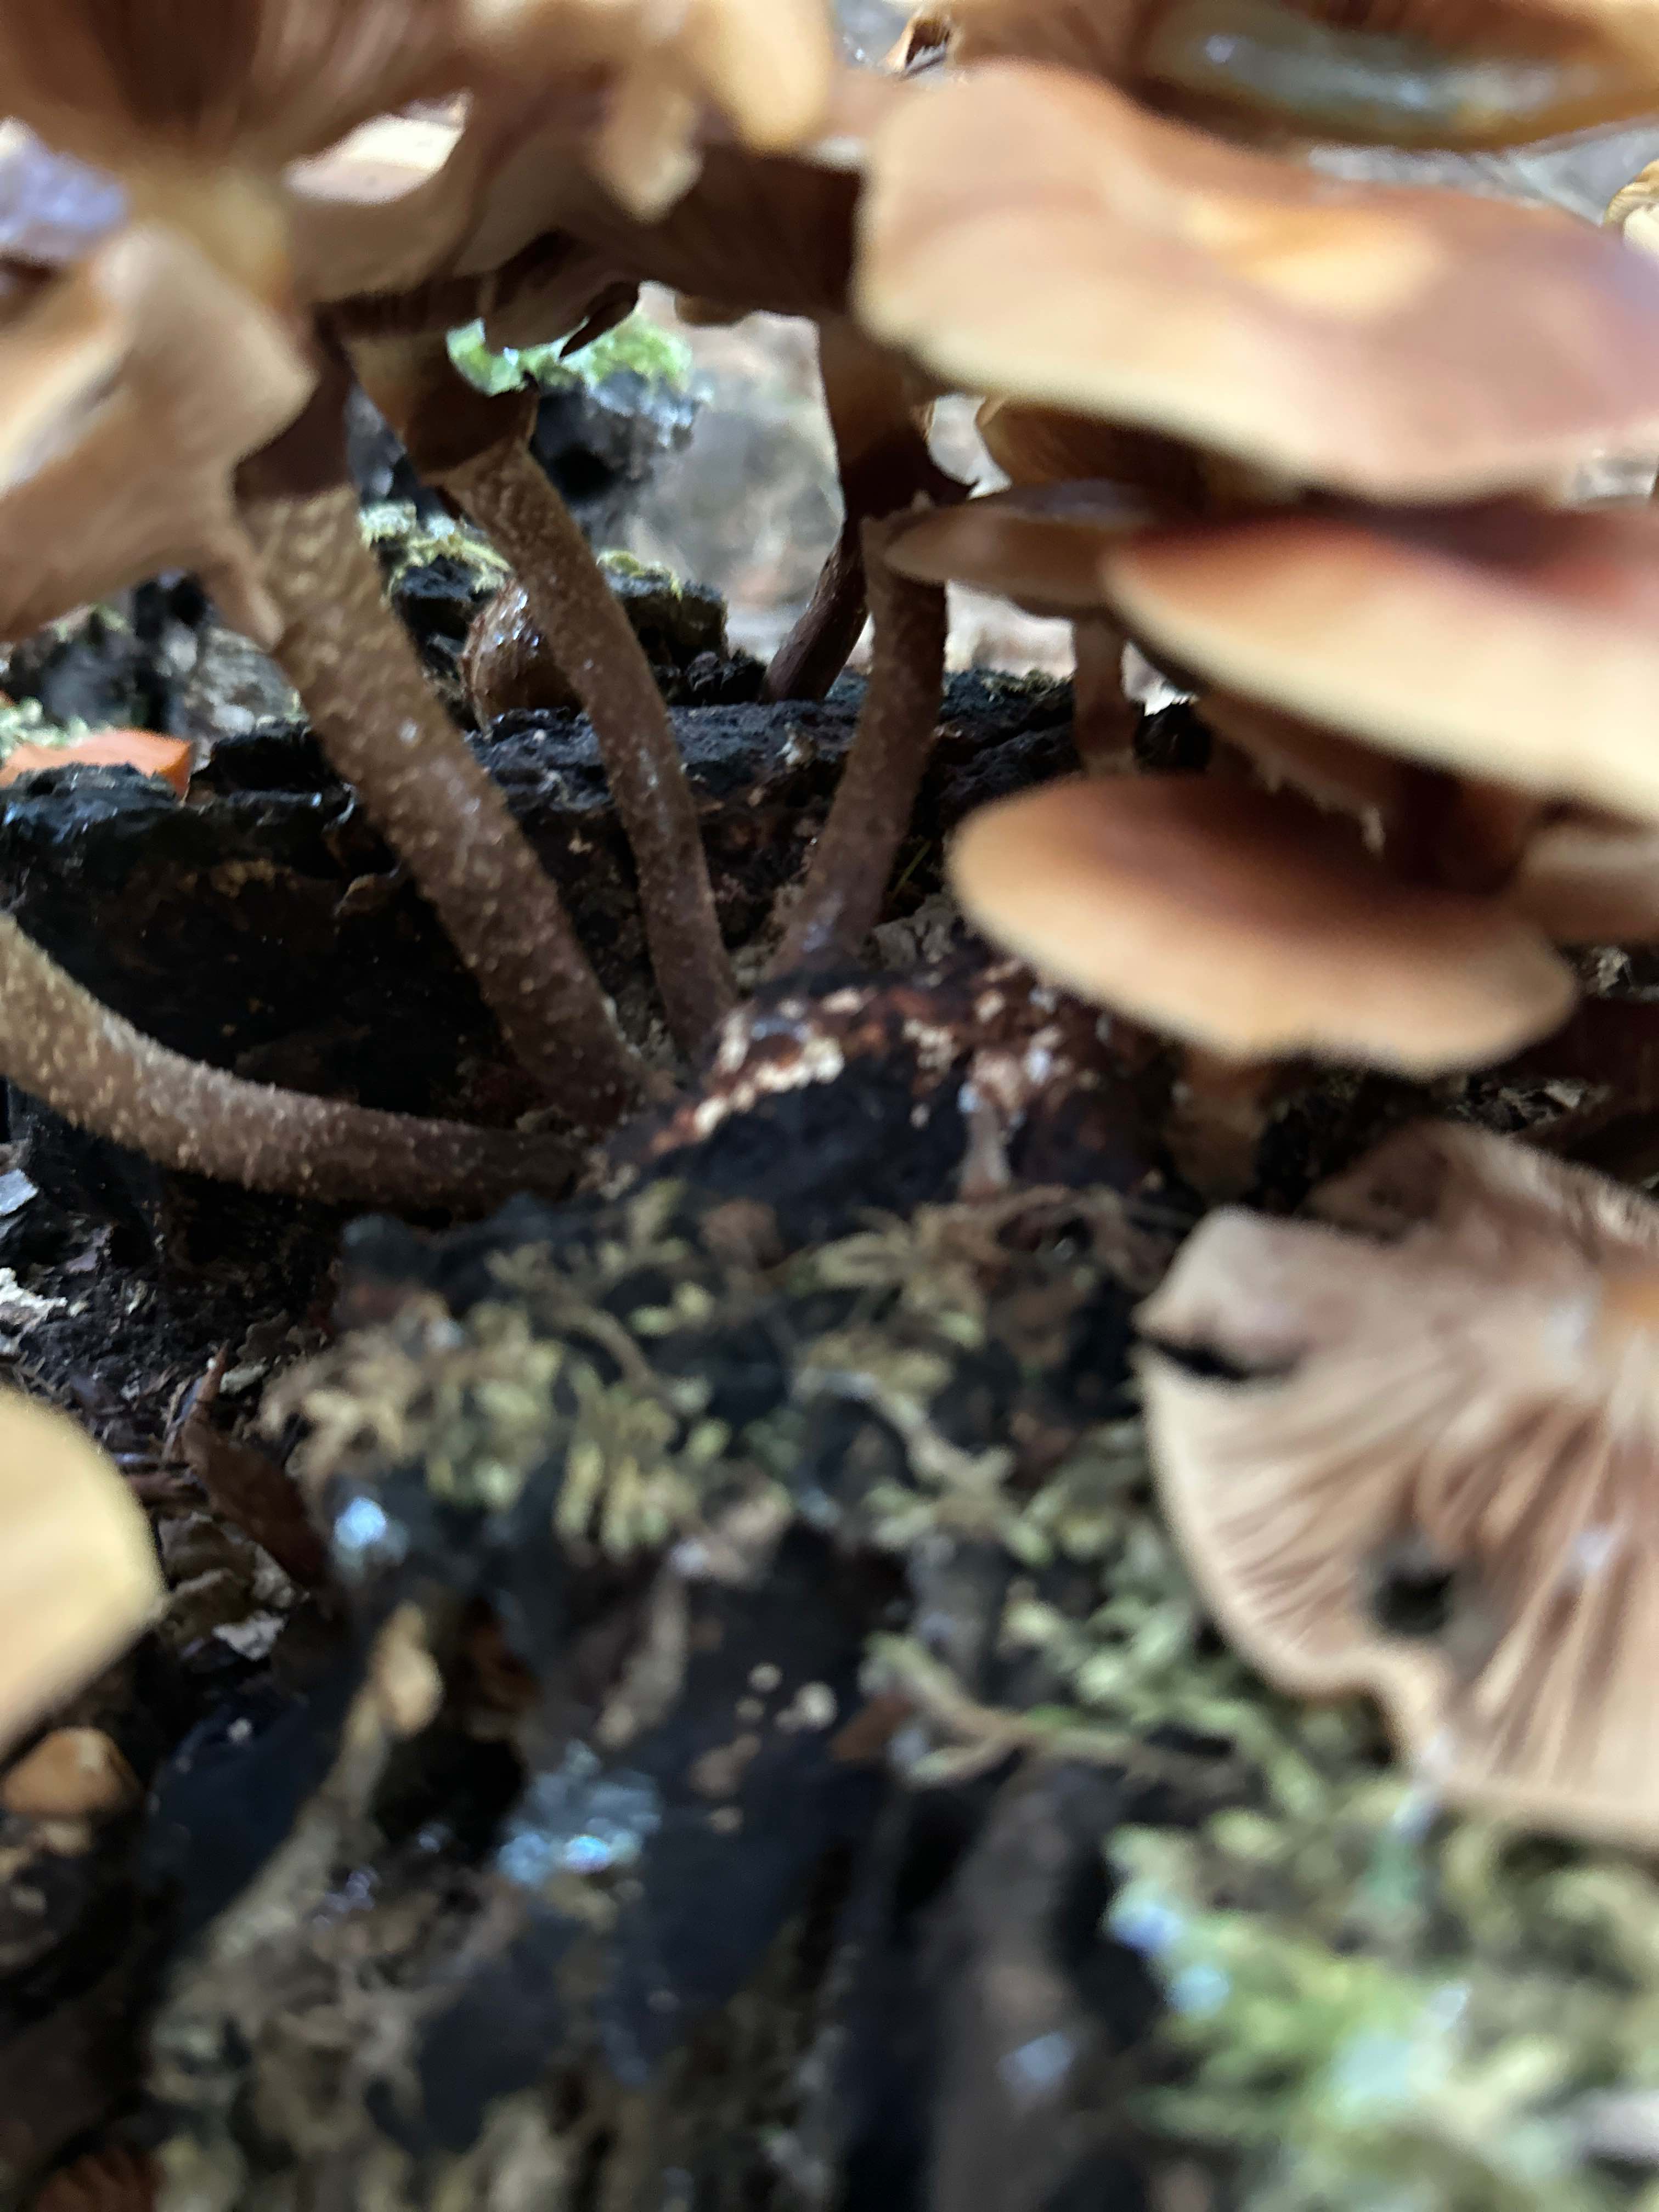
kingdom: Fungi
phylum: Basidiomycota
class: Agaricomycetes
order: Agaricales
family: Strophariaceae
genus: Kuehneromyces
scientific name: Kuehneromyces mutabilis
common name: foranderlig skælhat
